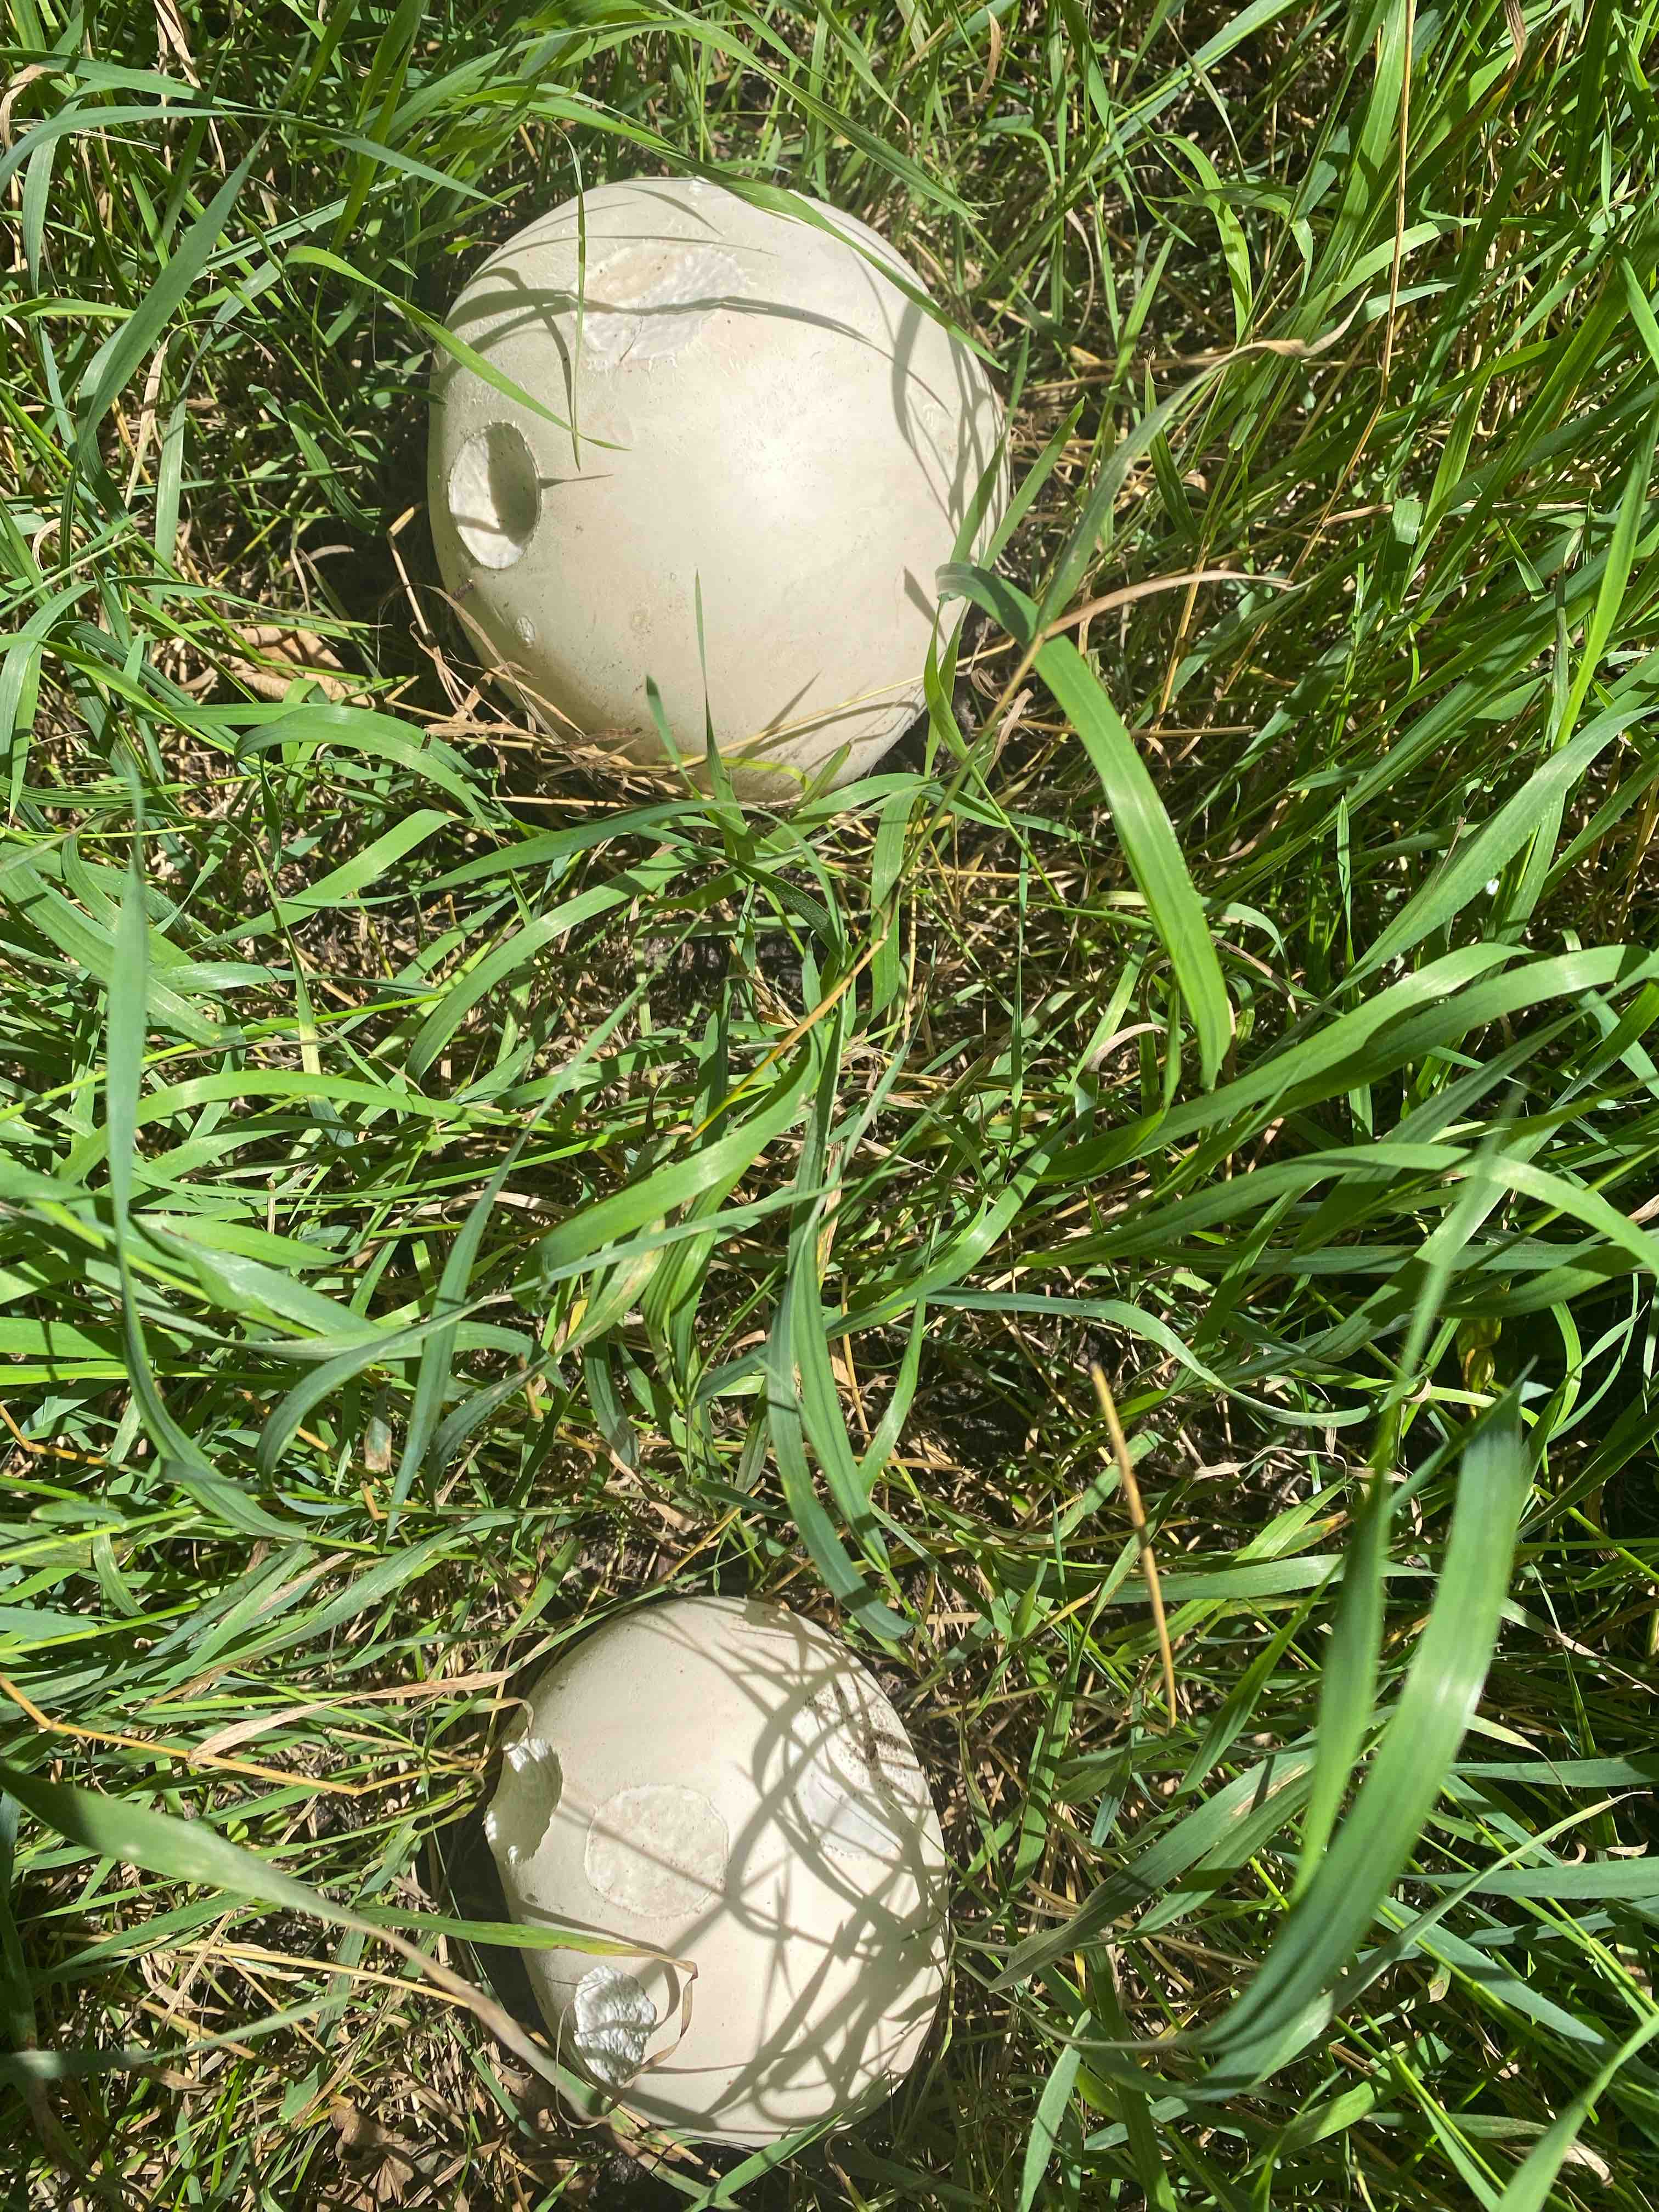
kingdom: Fungi
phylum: Basidiomycota
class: Agaricomycetes
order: Agaricales
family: Lycoperdaceae
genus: Calvatia
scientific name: Calvatia gigantea
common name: kæmpestøvbold
